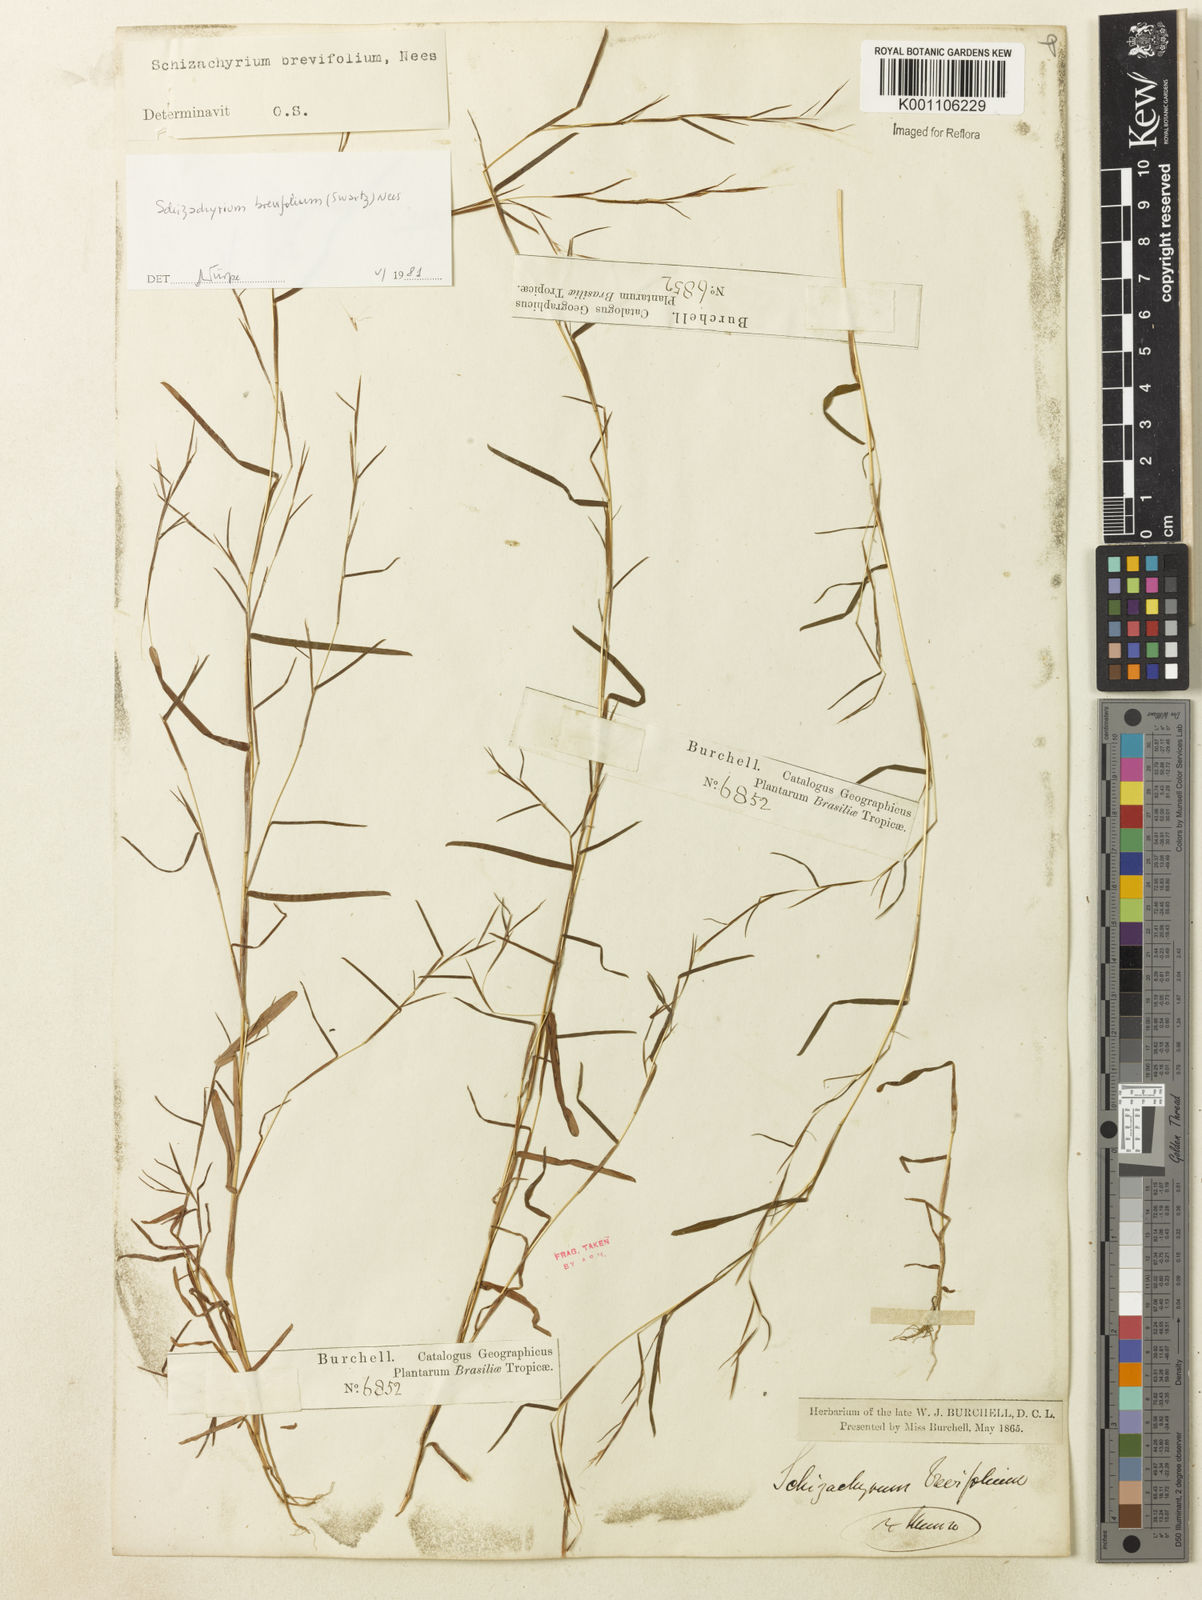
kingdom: Plantae
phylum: Tracheophyta
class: Liliopsida
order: Poales
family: Poaceae
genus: Schizachyrium
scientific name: Schizachyrium brevifolium
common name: Serillo dulce
